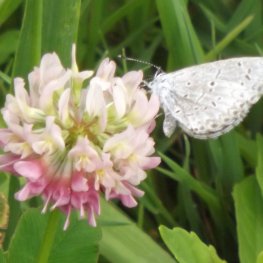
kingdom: Animalia
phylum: Arthropoda
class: Insecta
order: Lepidoptera
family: Lycaenidae
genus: Cyaniris
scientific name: Cyaniris neglecta
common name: Summer Azure
